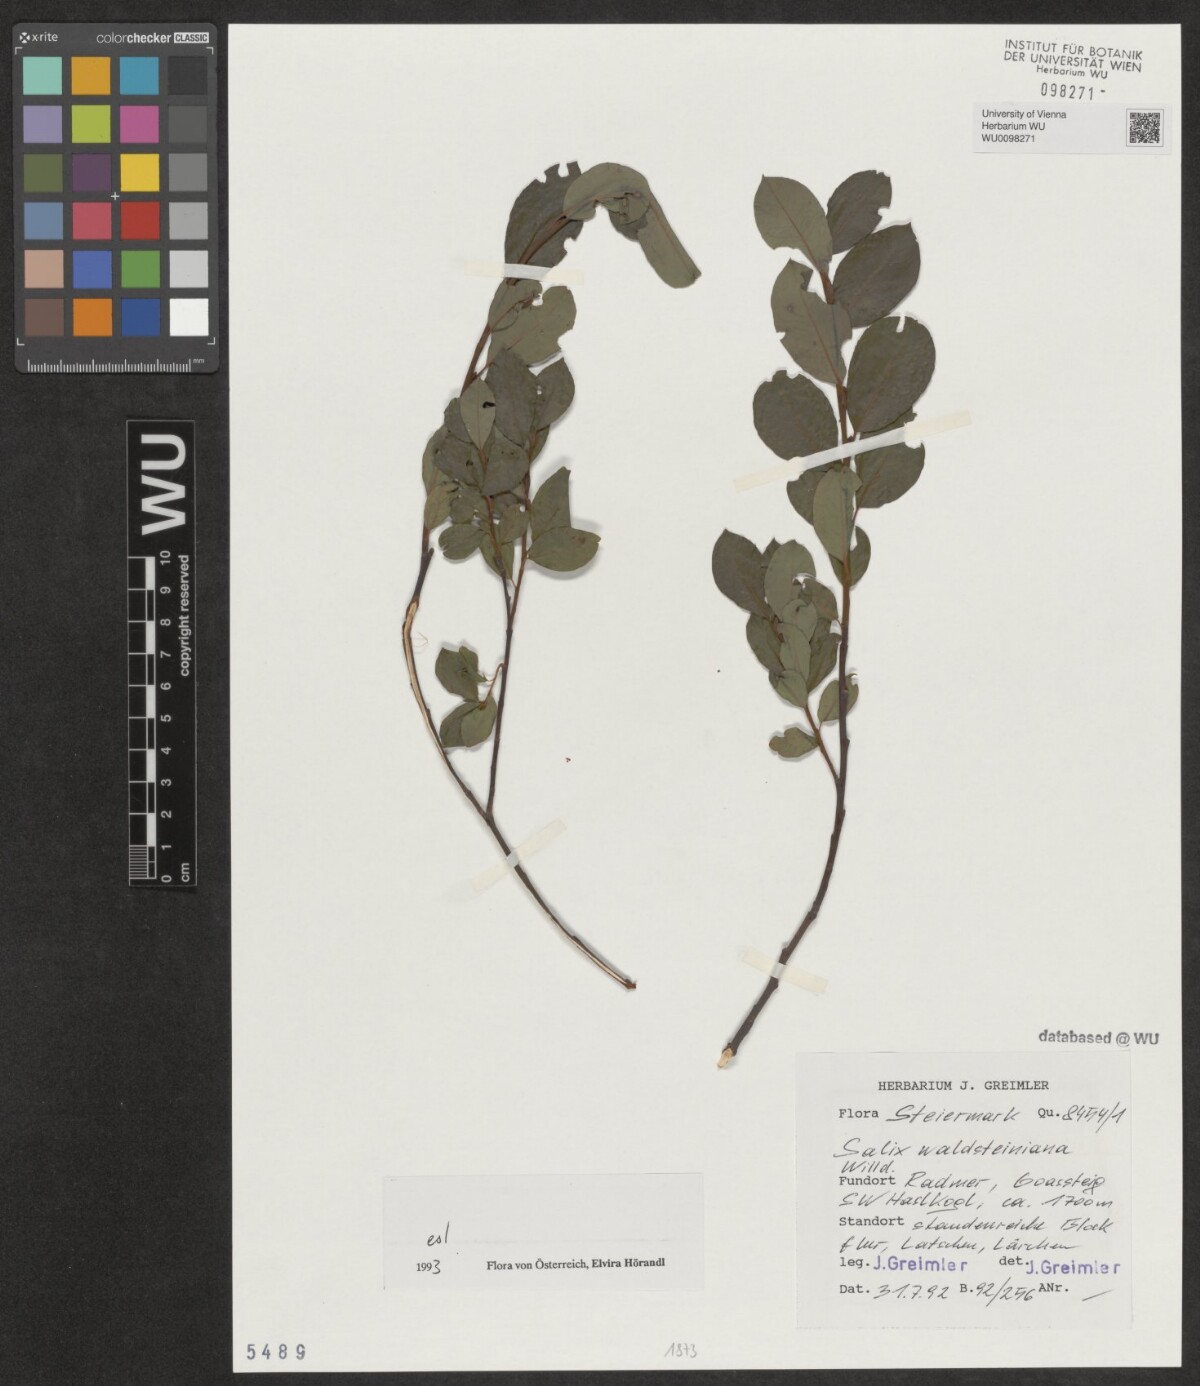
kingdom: Plantae
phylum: Tracheophyta
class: Magnoliopsida
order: Malpighiales
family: Salicaceae
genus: Salix
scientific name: Salix waldsteiniana
